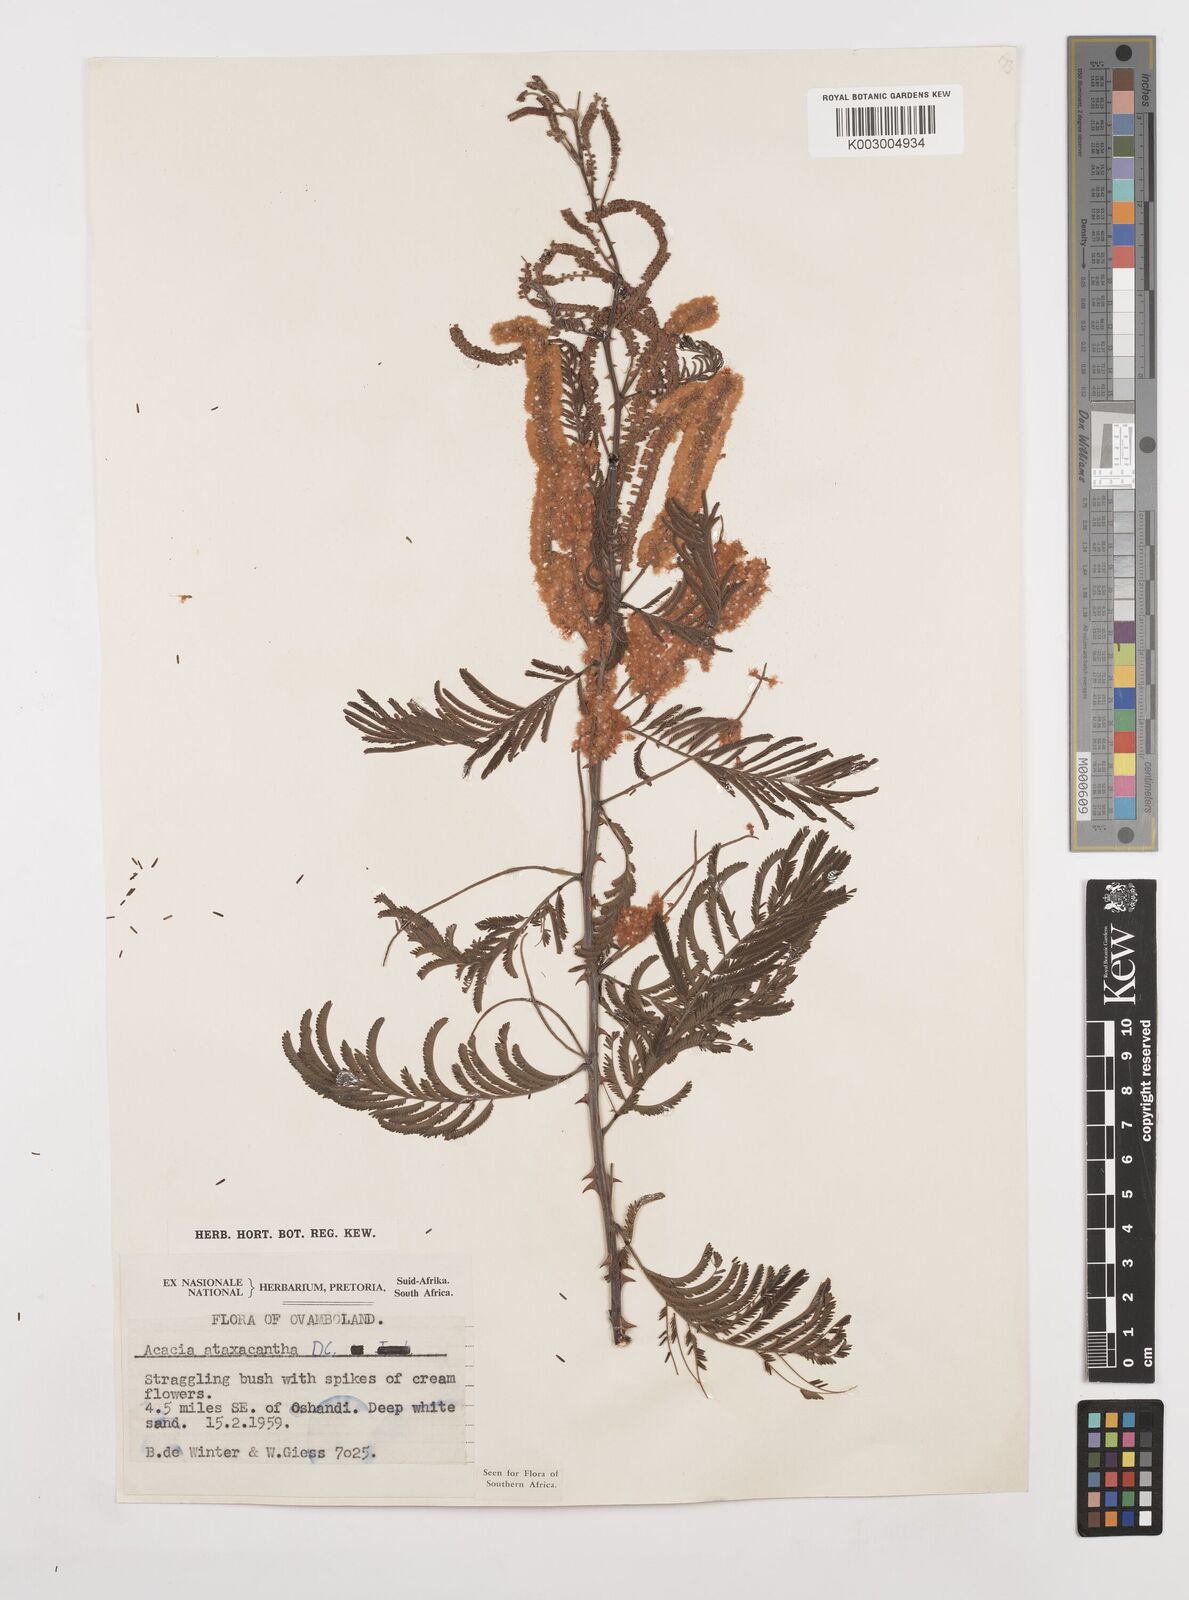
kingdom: Plantae
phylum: Tracheophyta
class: Magnoliopsida
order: Fabales
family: Fabaceae
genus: Senegalia
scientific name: Senegalia ataxacantha
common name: Flame acacia
